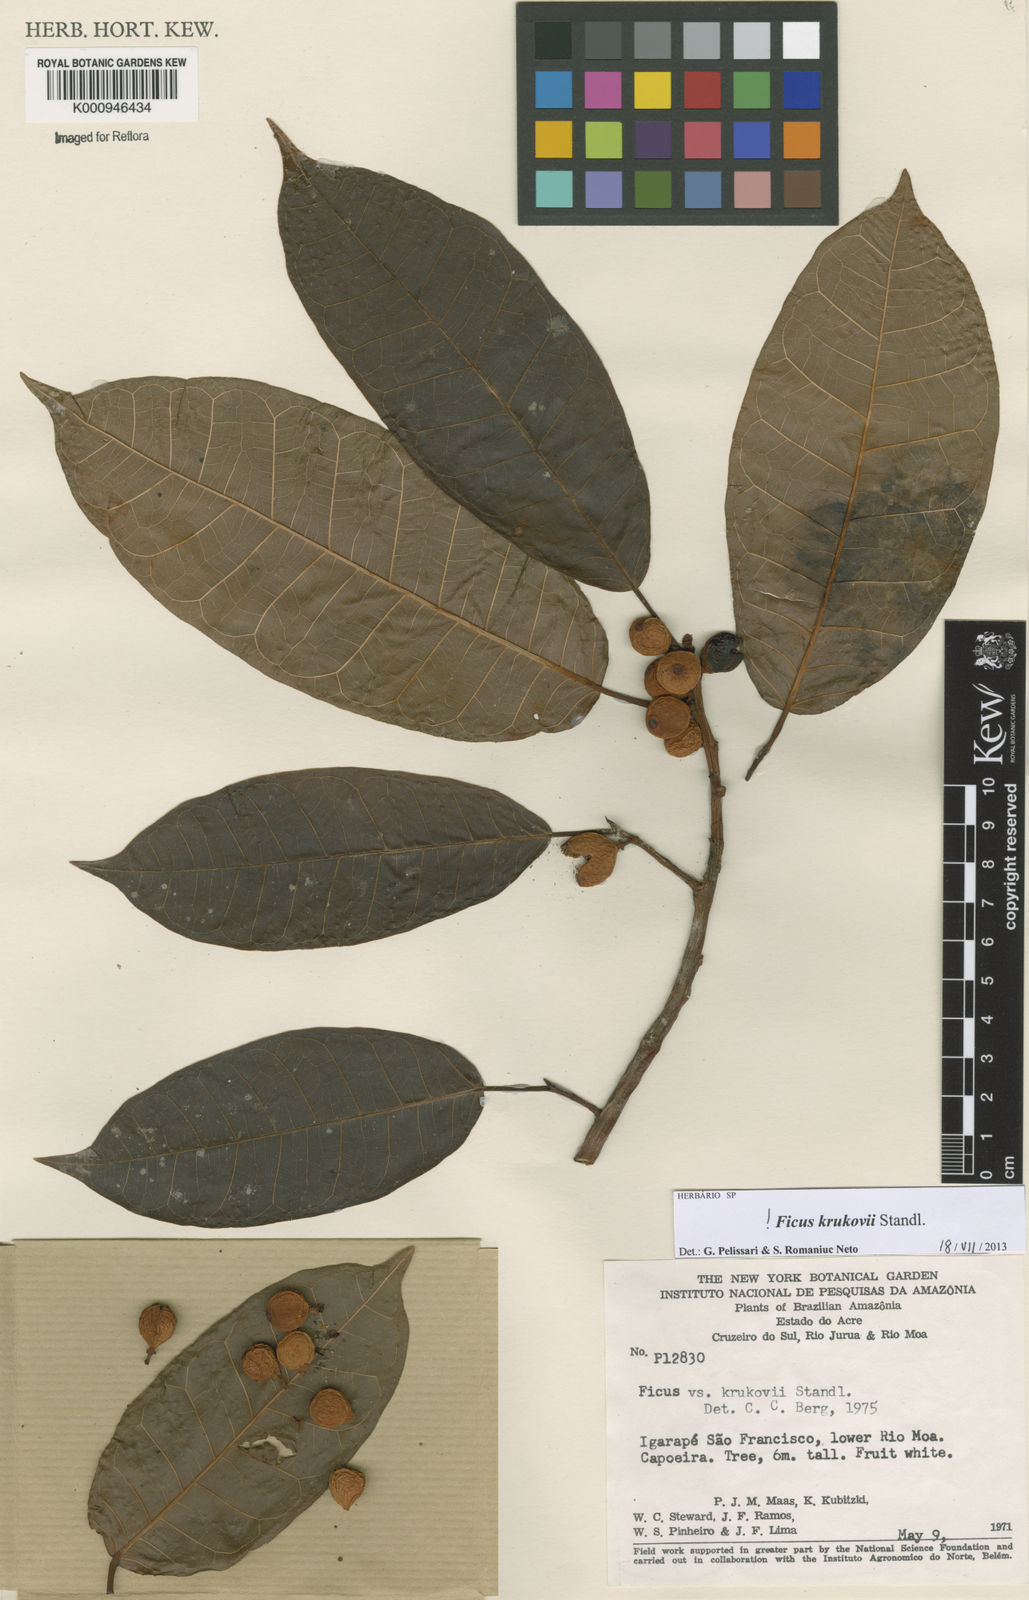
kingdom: Plantae
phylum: Tracheophyta
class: Magnoliopsida
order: Rosales
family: Moraceae
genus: Ficus
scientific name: Ficus krukovii
